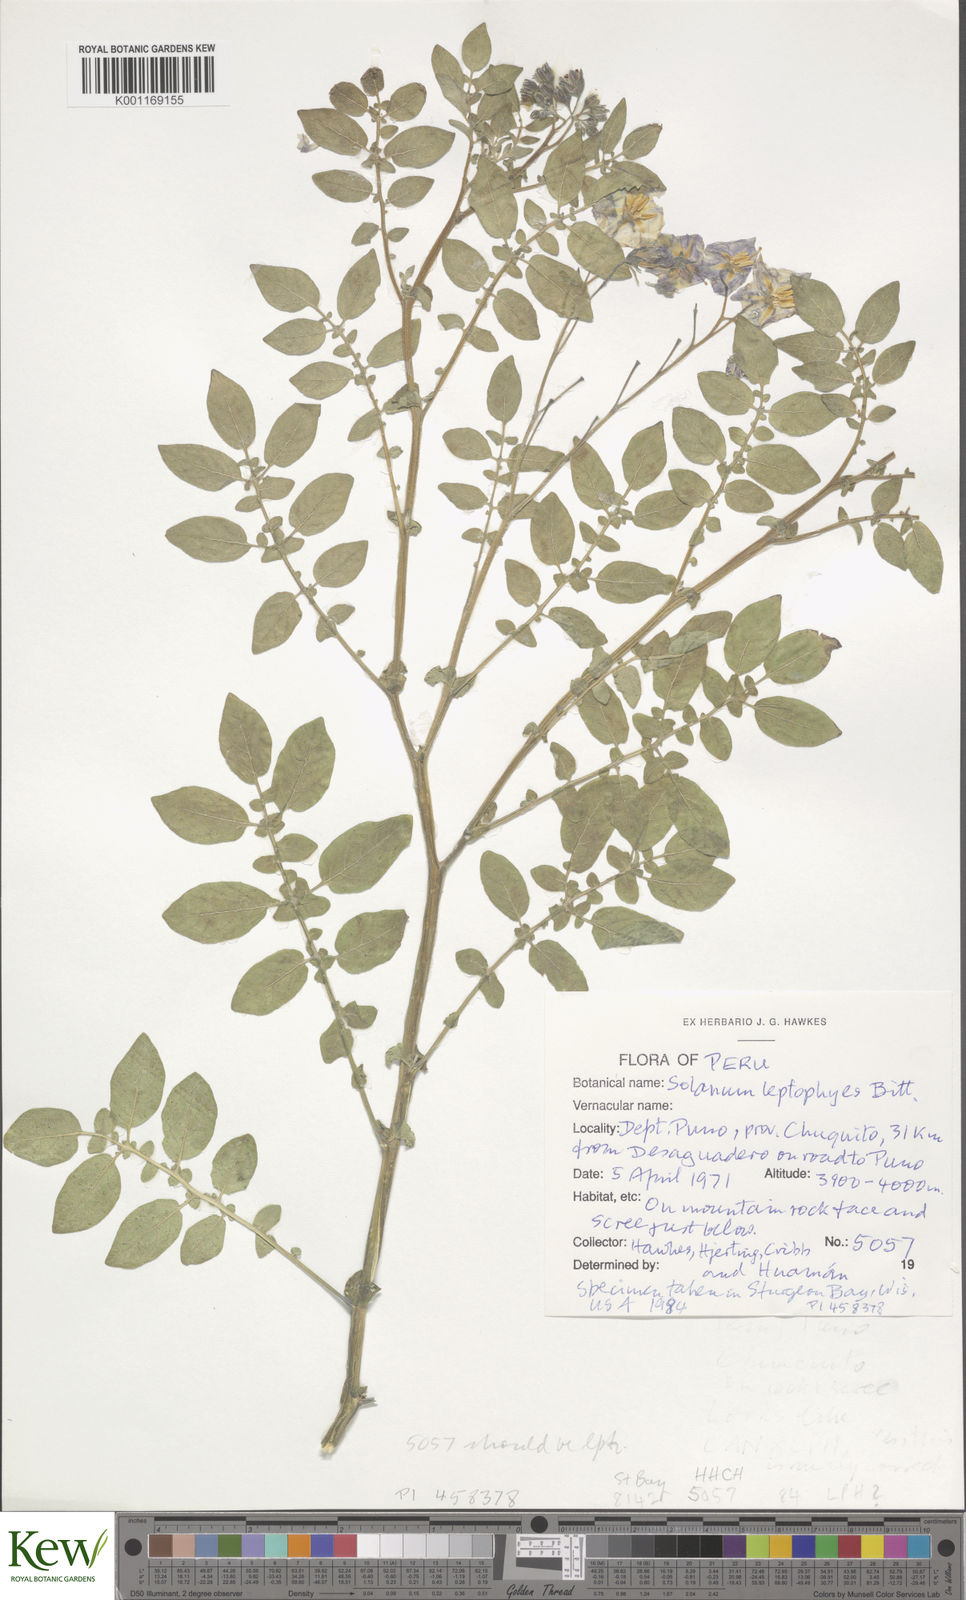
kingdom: Plantae
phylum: Tracheophyta
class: Magnoliopsida
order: Solanales
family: Solanaceae
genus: Solanum
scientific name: Solanum brevicaule
